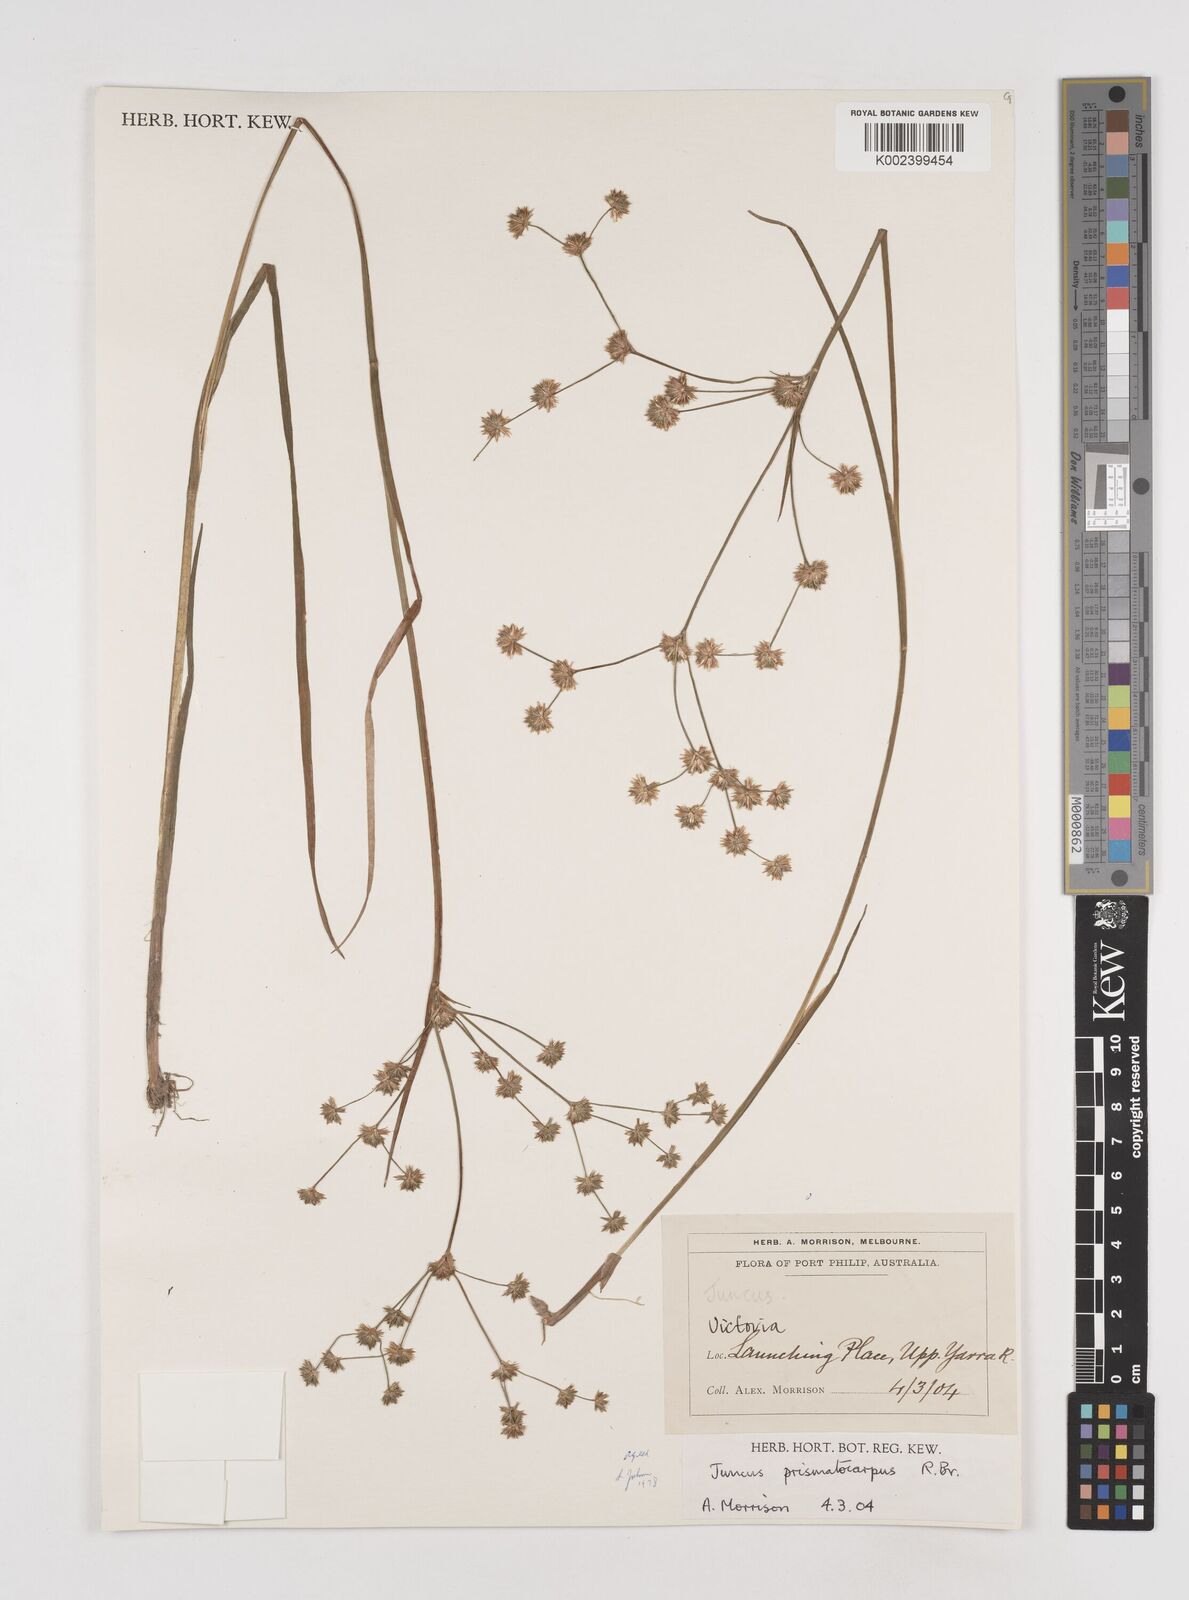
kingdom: Plantae
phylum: Tracheophyta
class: Liliopsida
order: Poales
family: Juncaceae
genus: Juncus
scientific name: Juncus prismatocarpus
